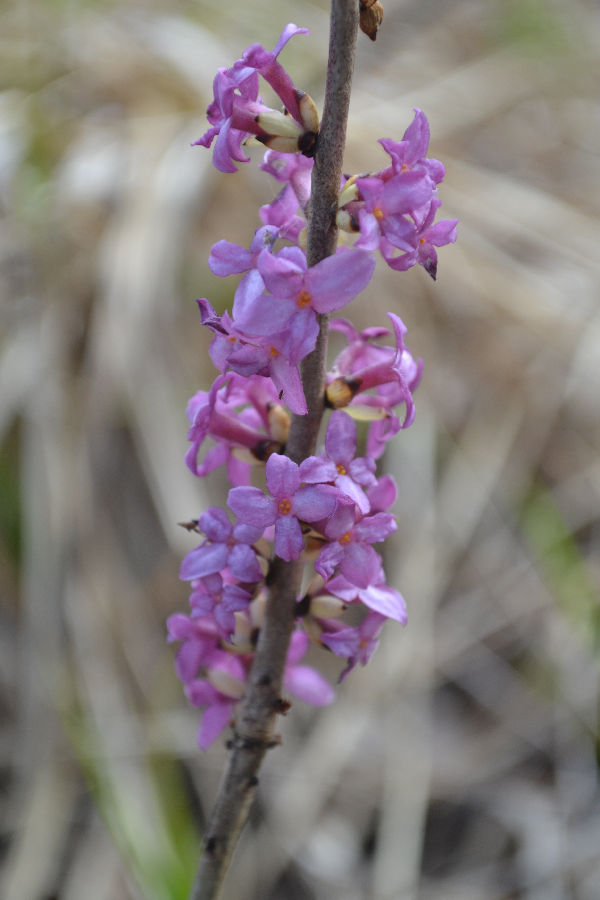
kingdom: Plantae
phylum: Tracheophyta
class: Magnoliopsida
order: Malvales
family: Thymelaeaceae
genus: Daphne
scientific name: Daphne mezereum
